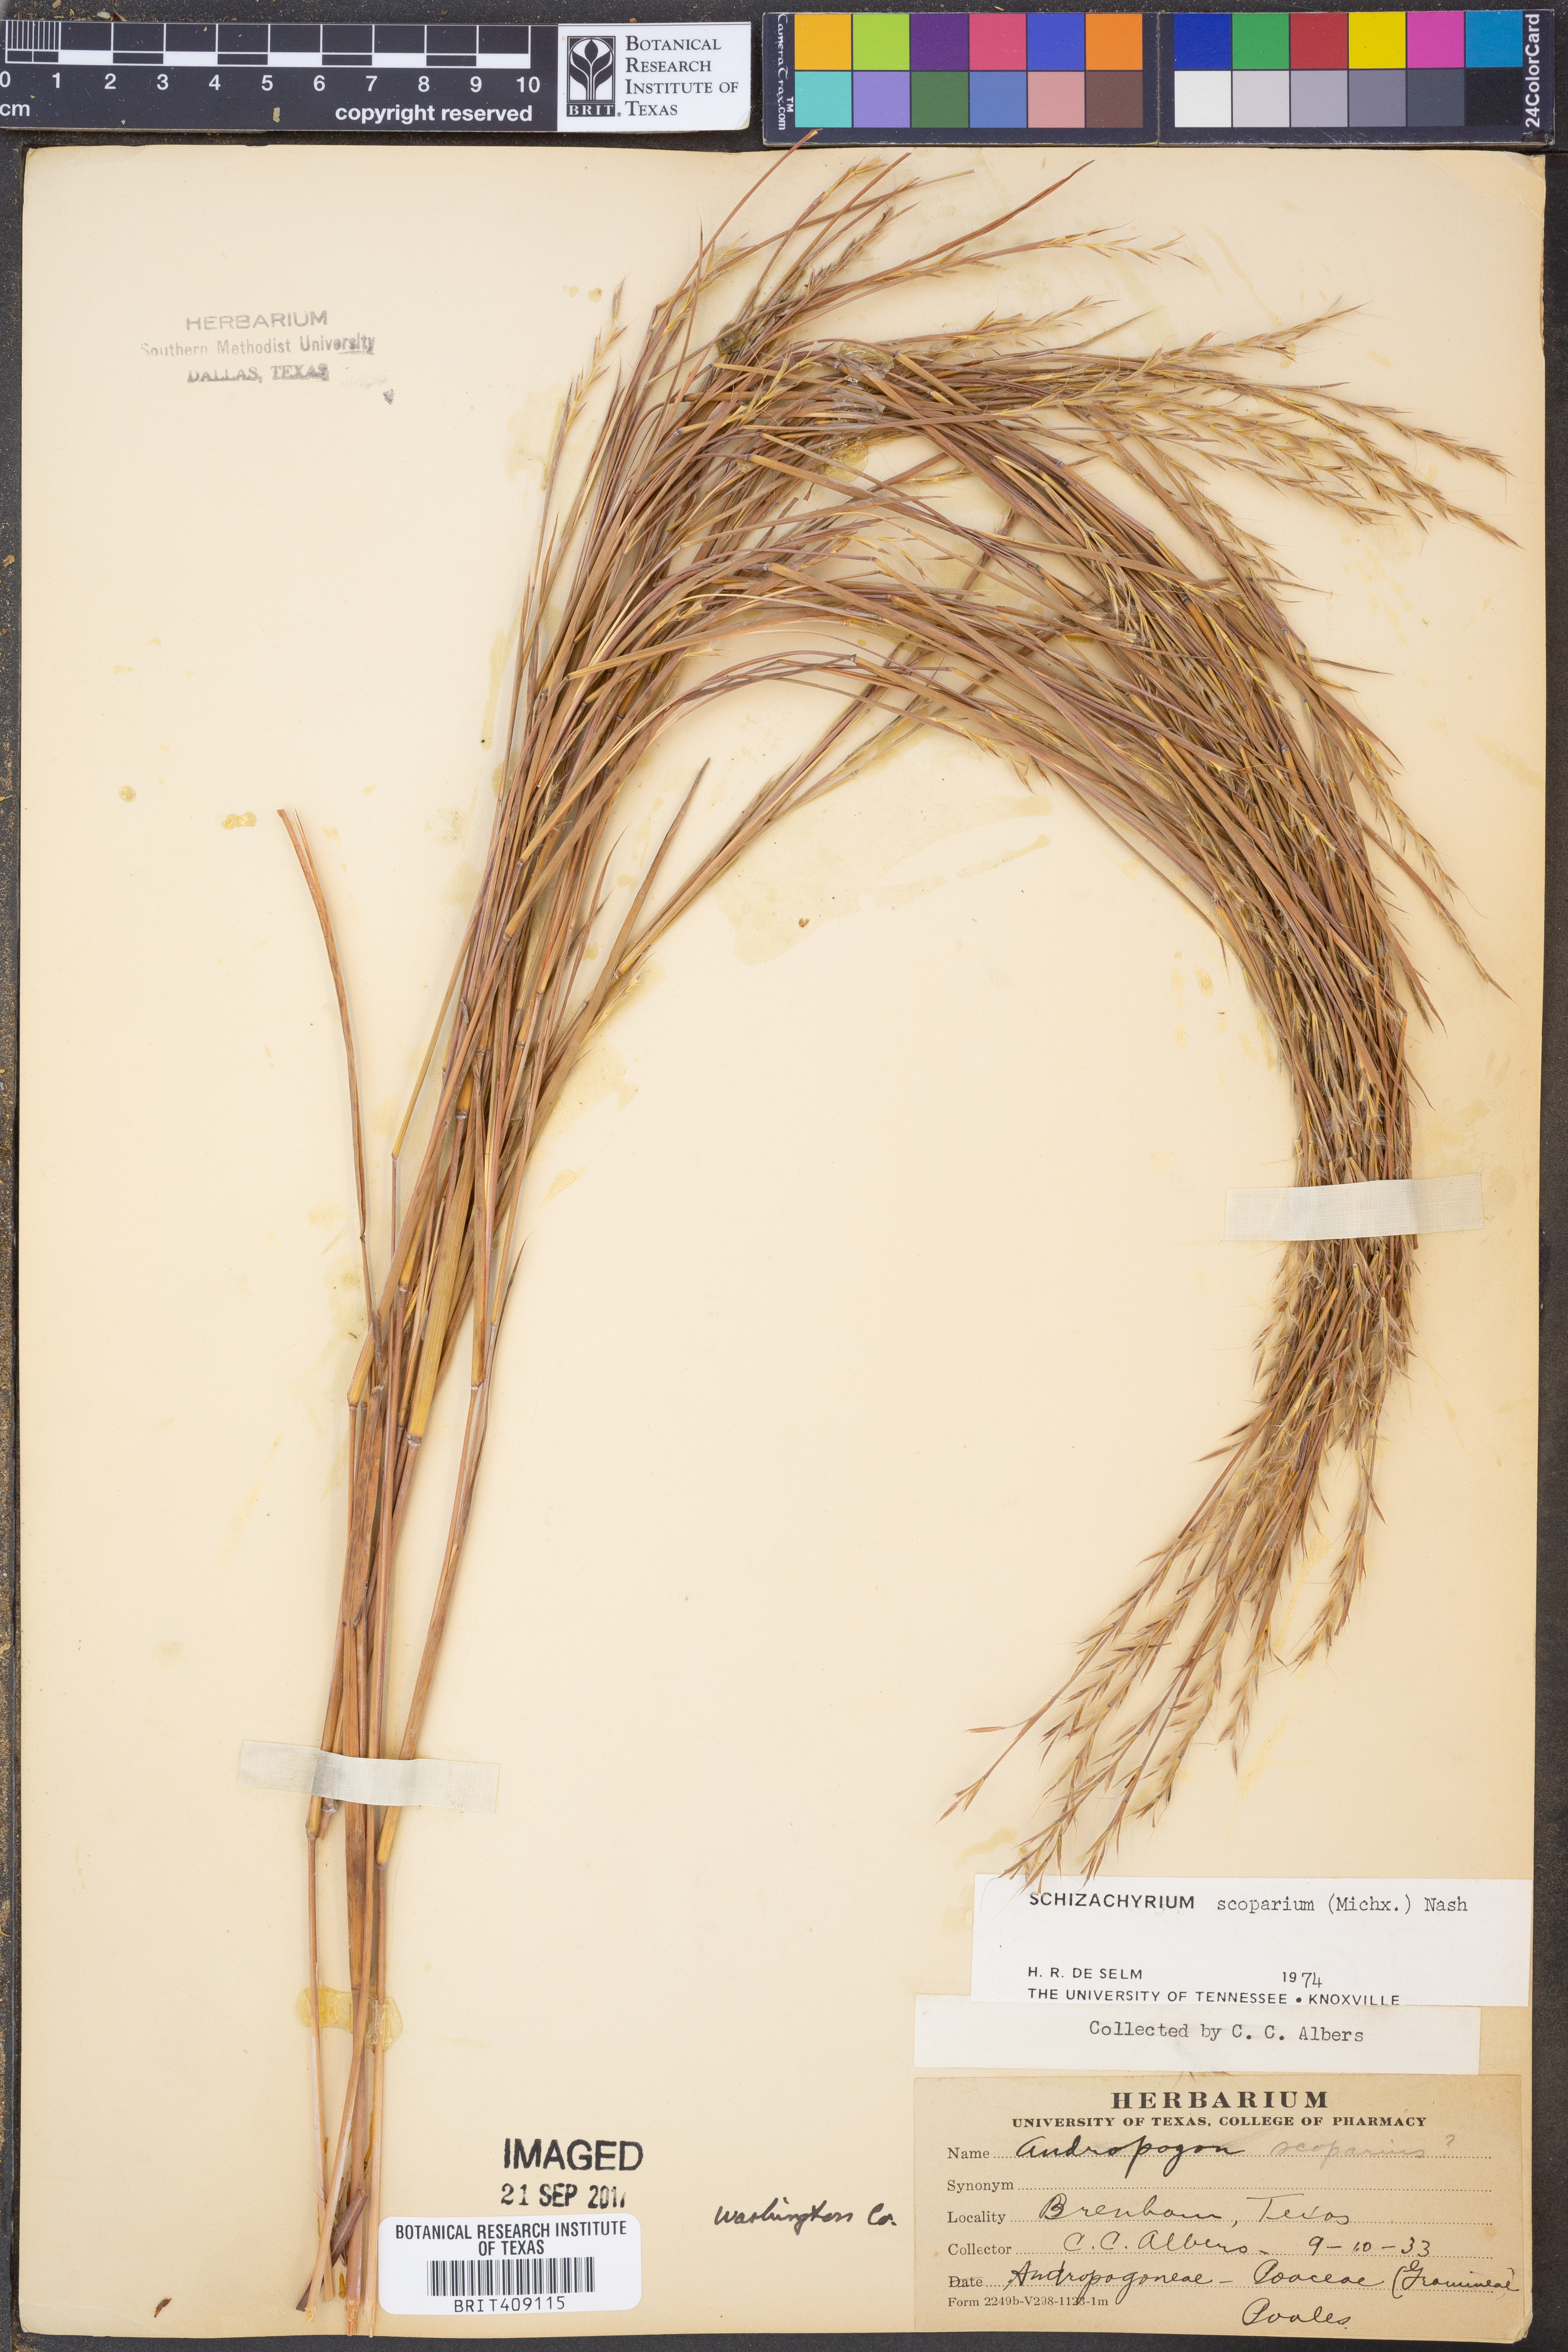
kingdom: Plantae
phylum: Tracheophyta
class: Liliopsida
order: Poales
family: Poaceae
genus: Schizachyrium
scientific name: Schizachyrium scoparium
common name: Little bluestem
